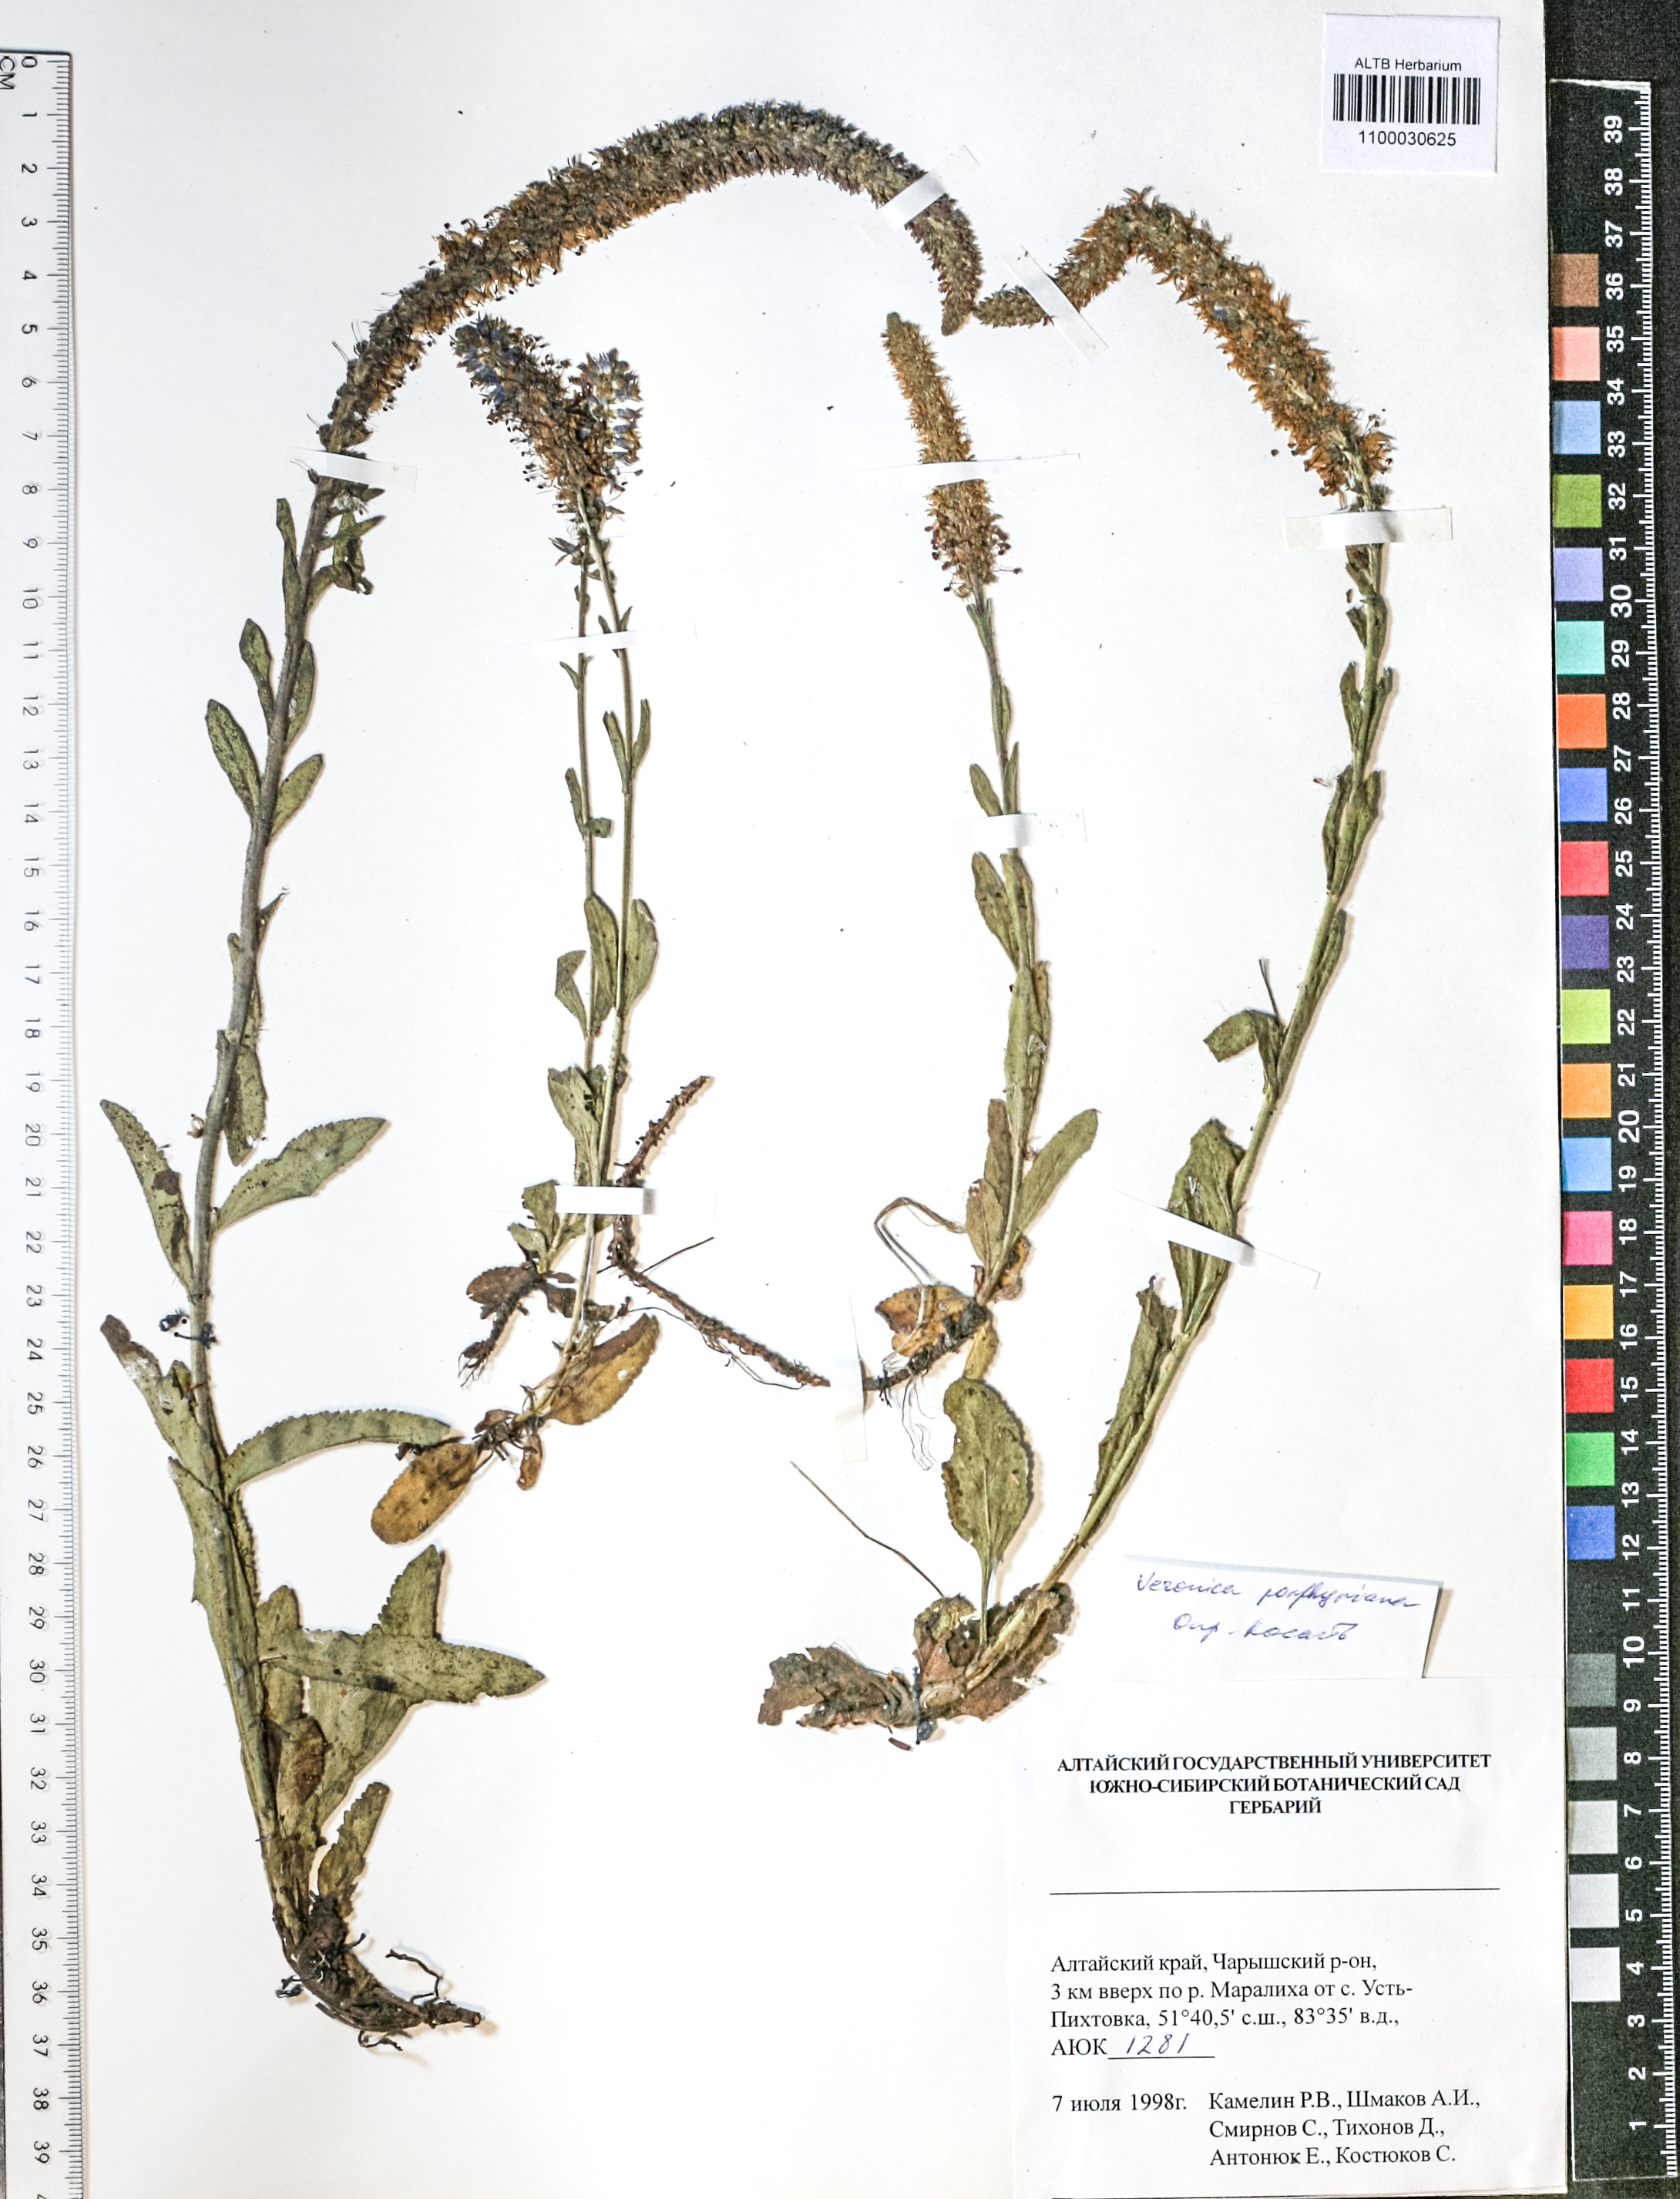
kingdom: Plantae
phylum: Tracheophyta
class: Magnoliopsida
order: Lamiales
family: Plantaginaceae
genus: Veronica
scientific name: Veronica porphyriana
